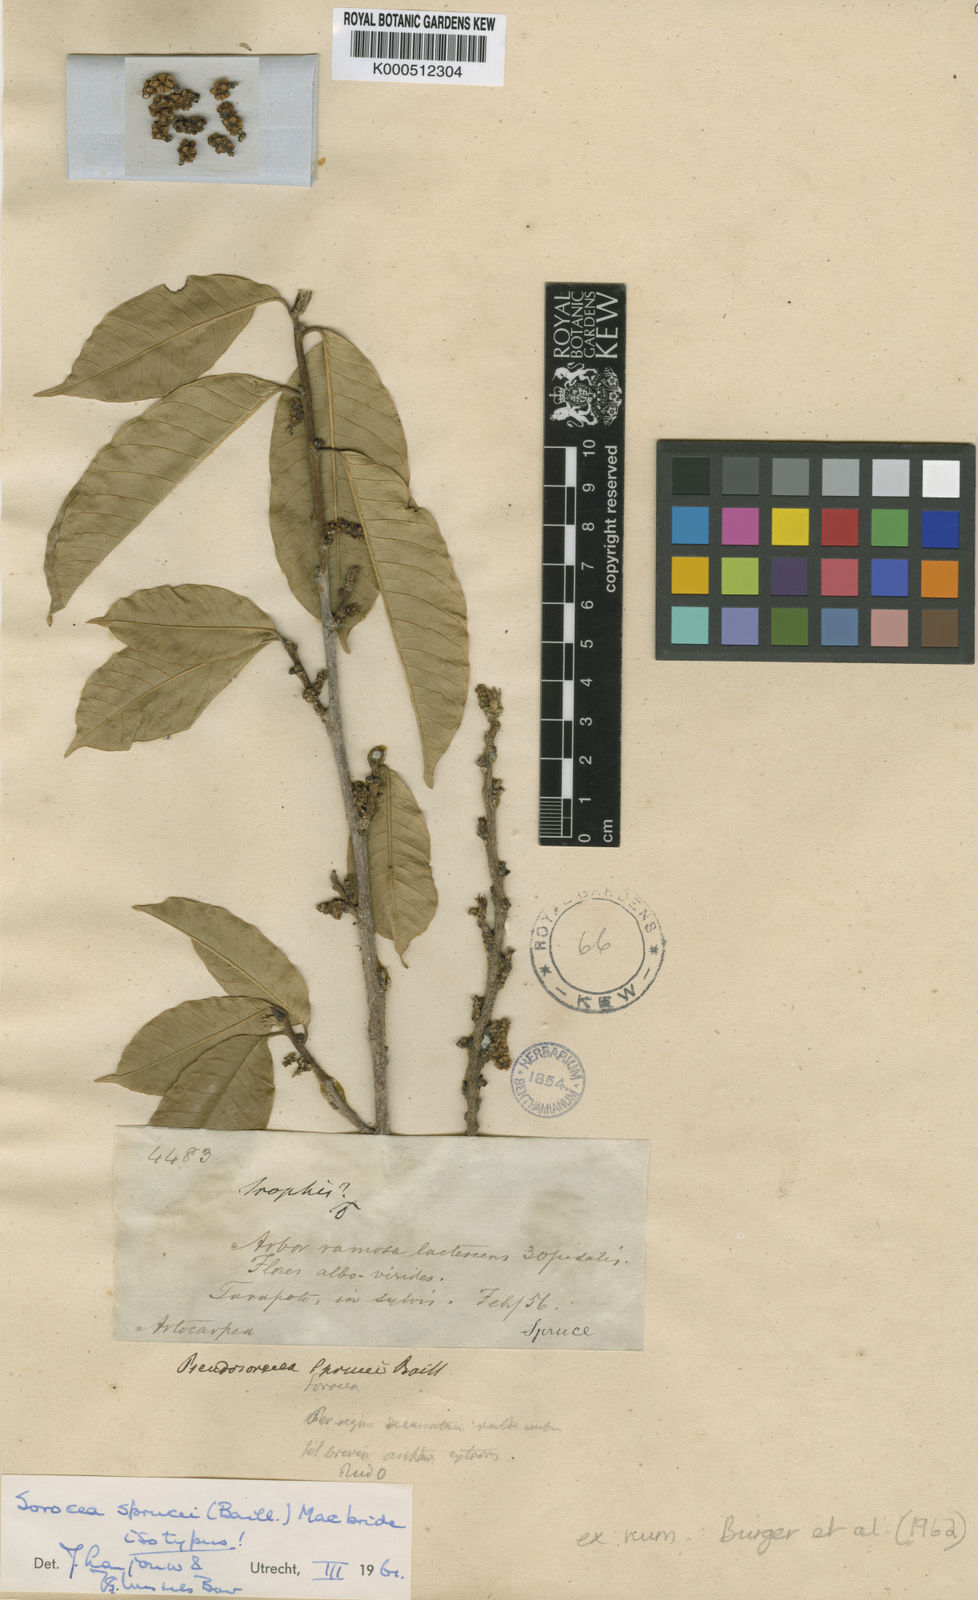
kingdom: Plantae
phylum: Tracheophyta
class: Magnoliopsida
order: Rosales
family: Moraceae
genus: Sorocea
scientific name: Sorocea sprucei
